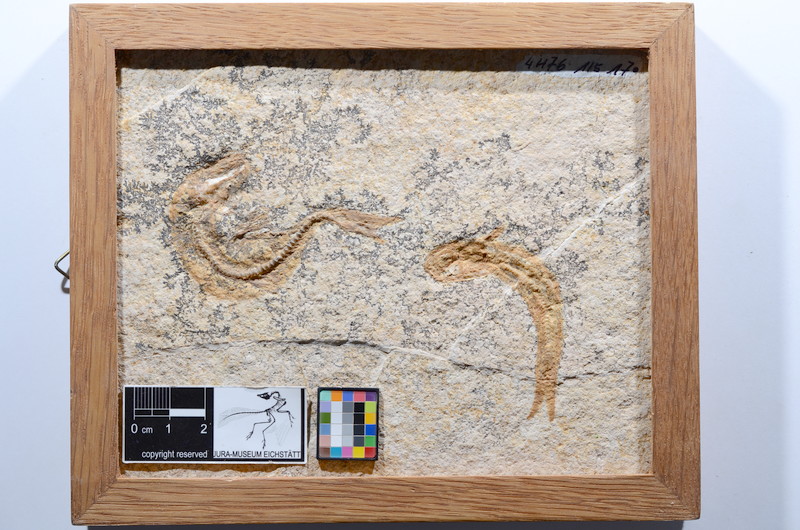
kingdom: Animalia
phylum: Chordata
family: Ascalaboidae
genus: Tharsis
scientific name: Tharsis dubius
